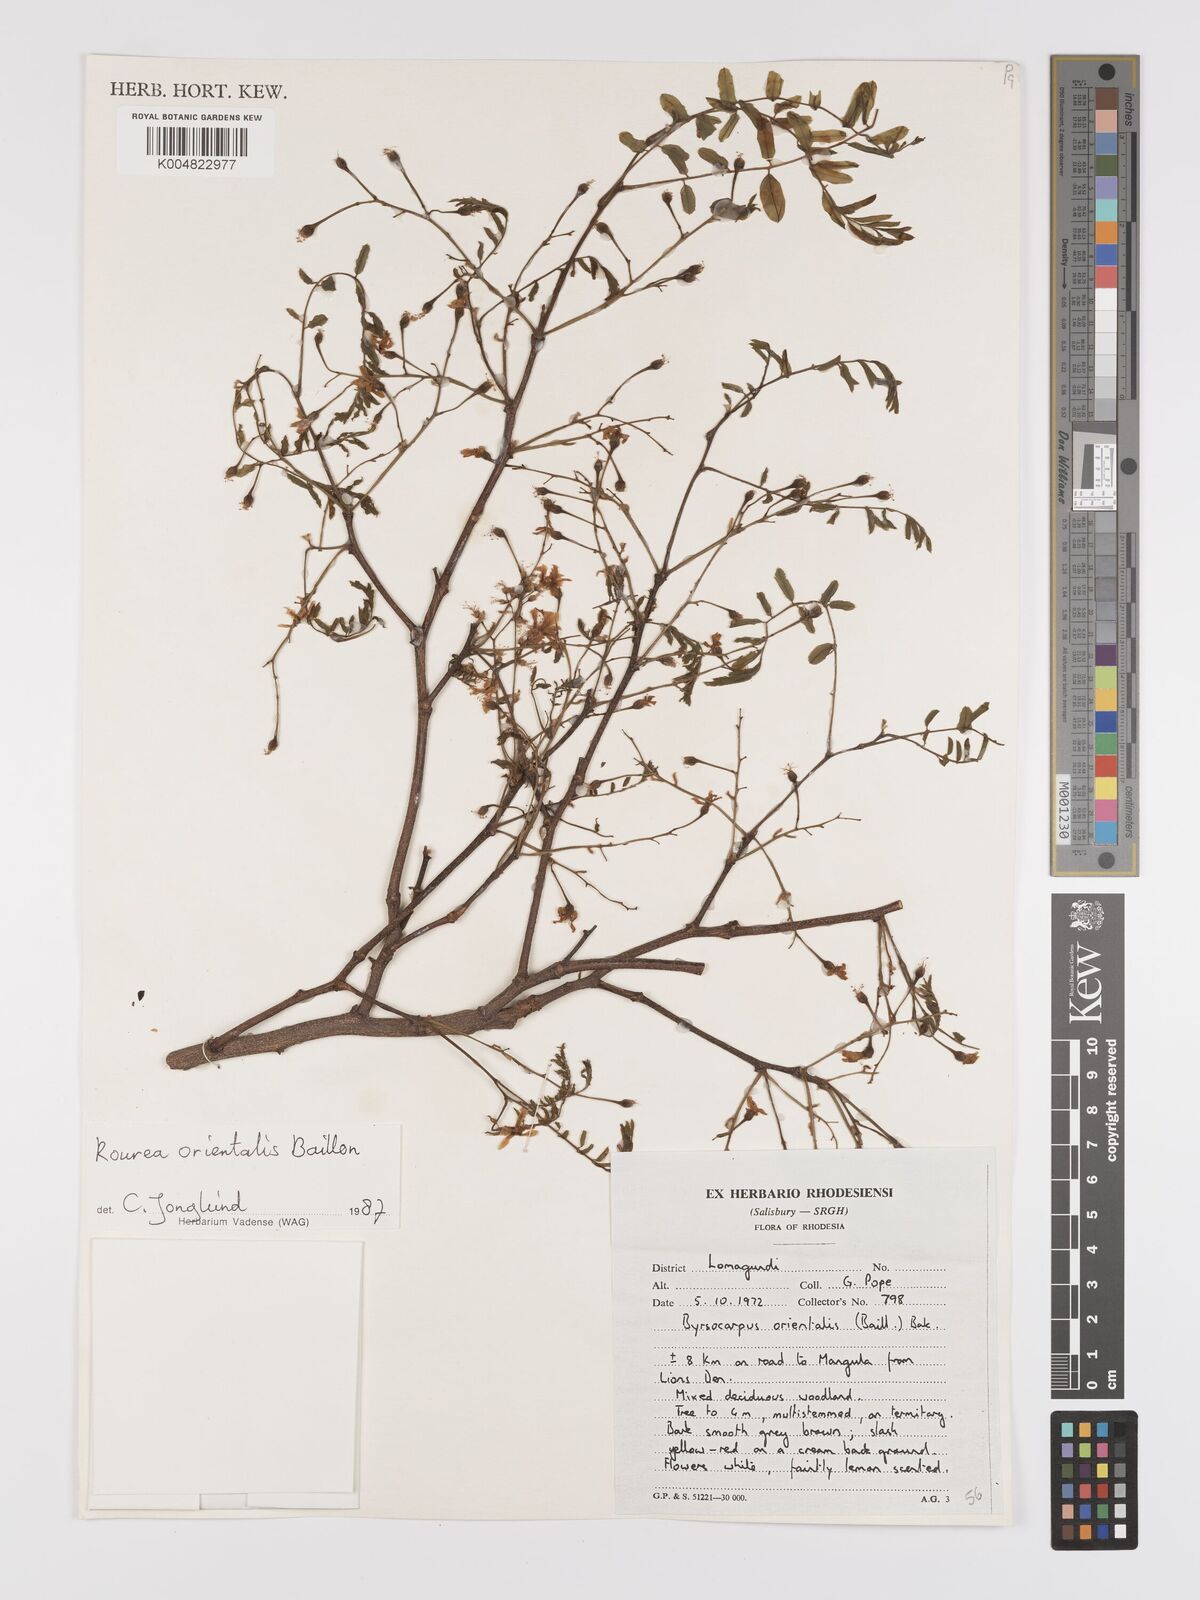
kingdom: Plantae
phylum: Tracheophyta
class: Magnoliopsida
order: Oxalidales
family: Connaraceae
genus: Rourea
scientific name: Rourea orientalis
